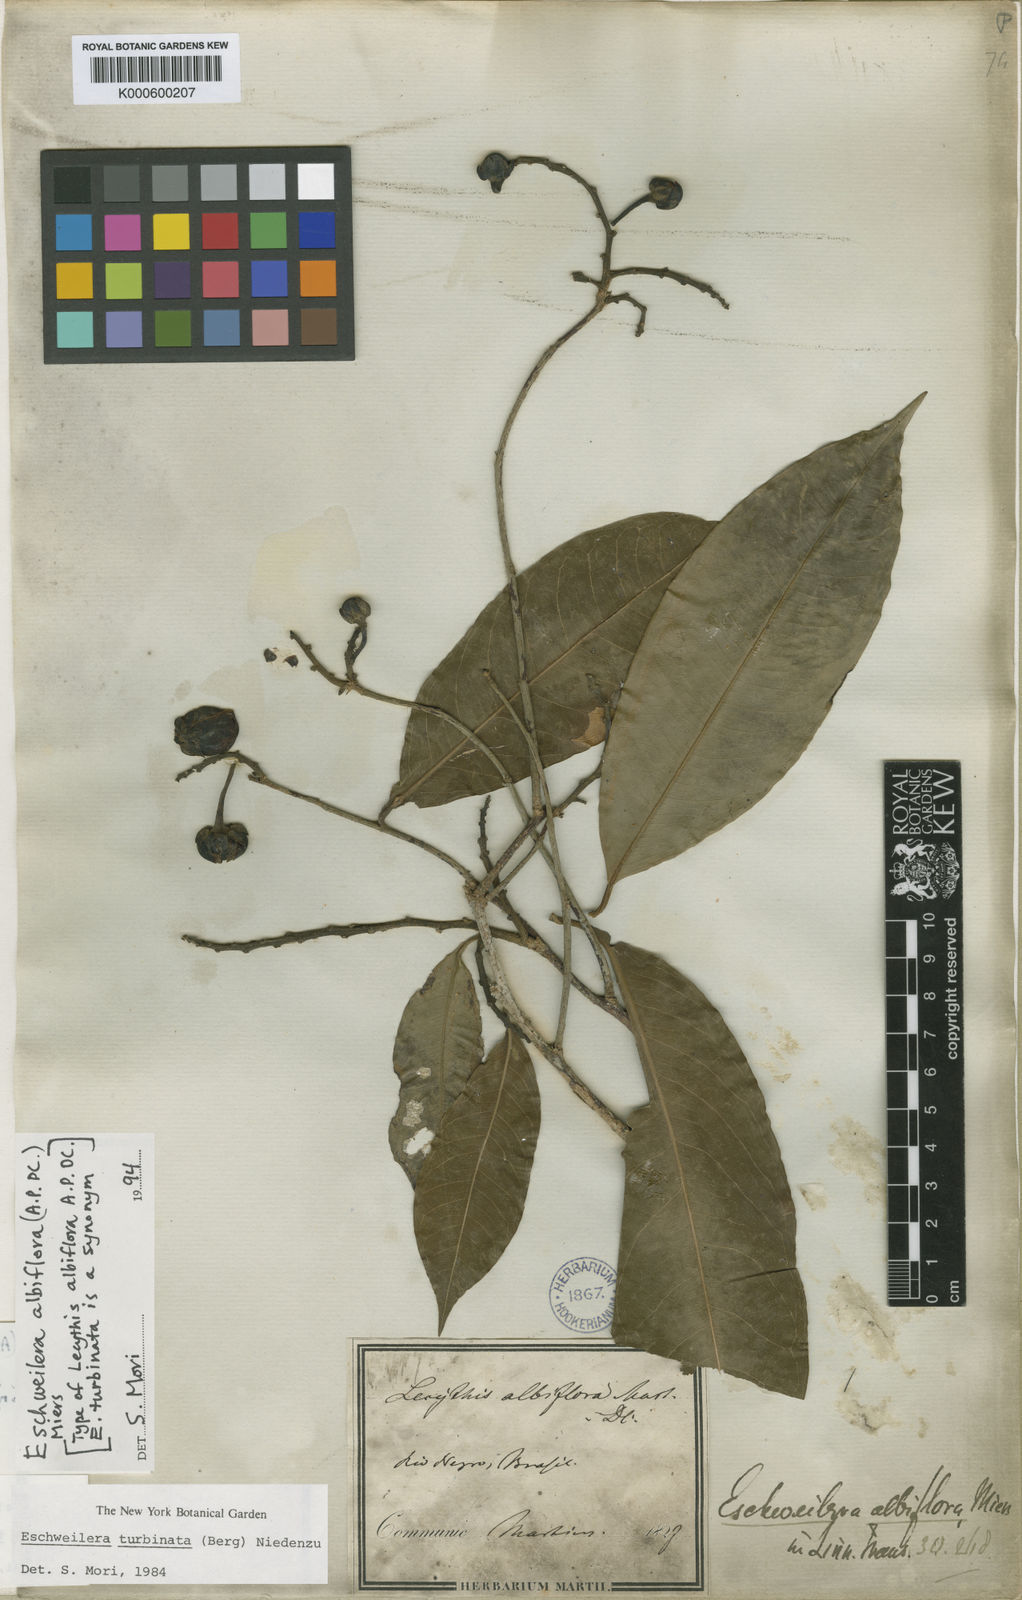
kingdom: Plantae
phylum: Tracheophyta
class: Magnoliopsida
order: Ericales
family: Lecythidaceae
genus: Eschweilera
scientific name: Eschweilera albiflora
